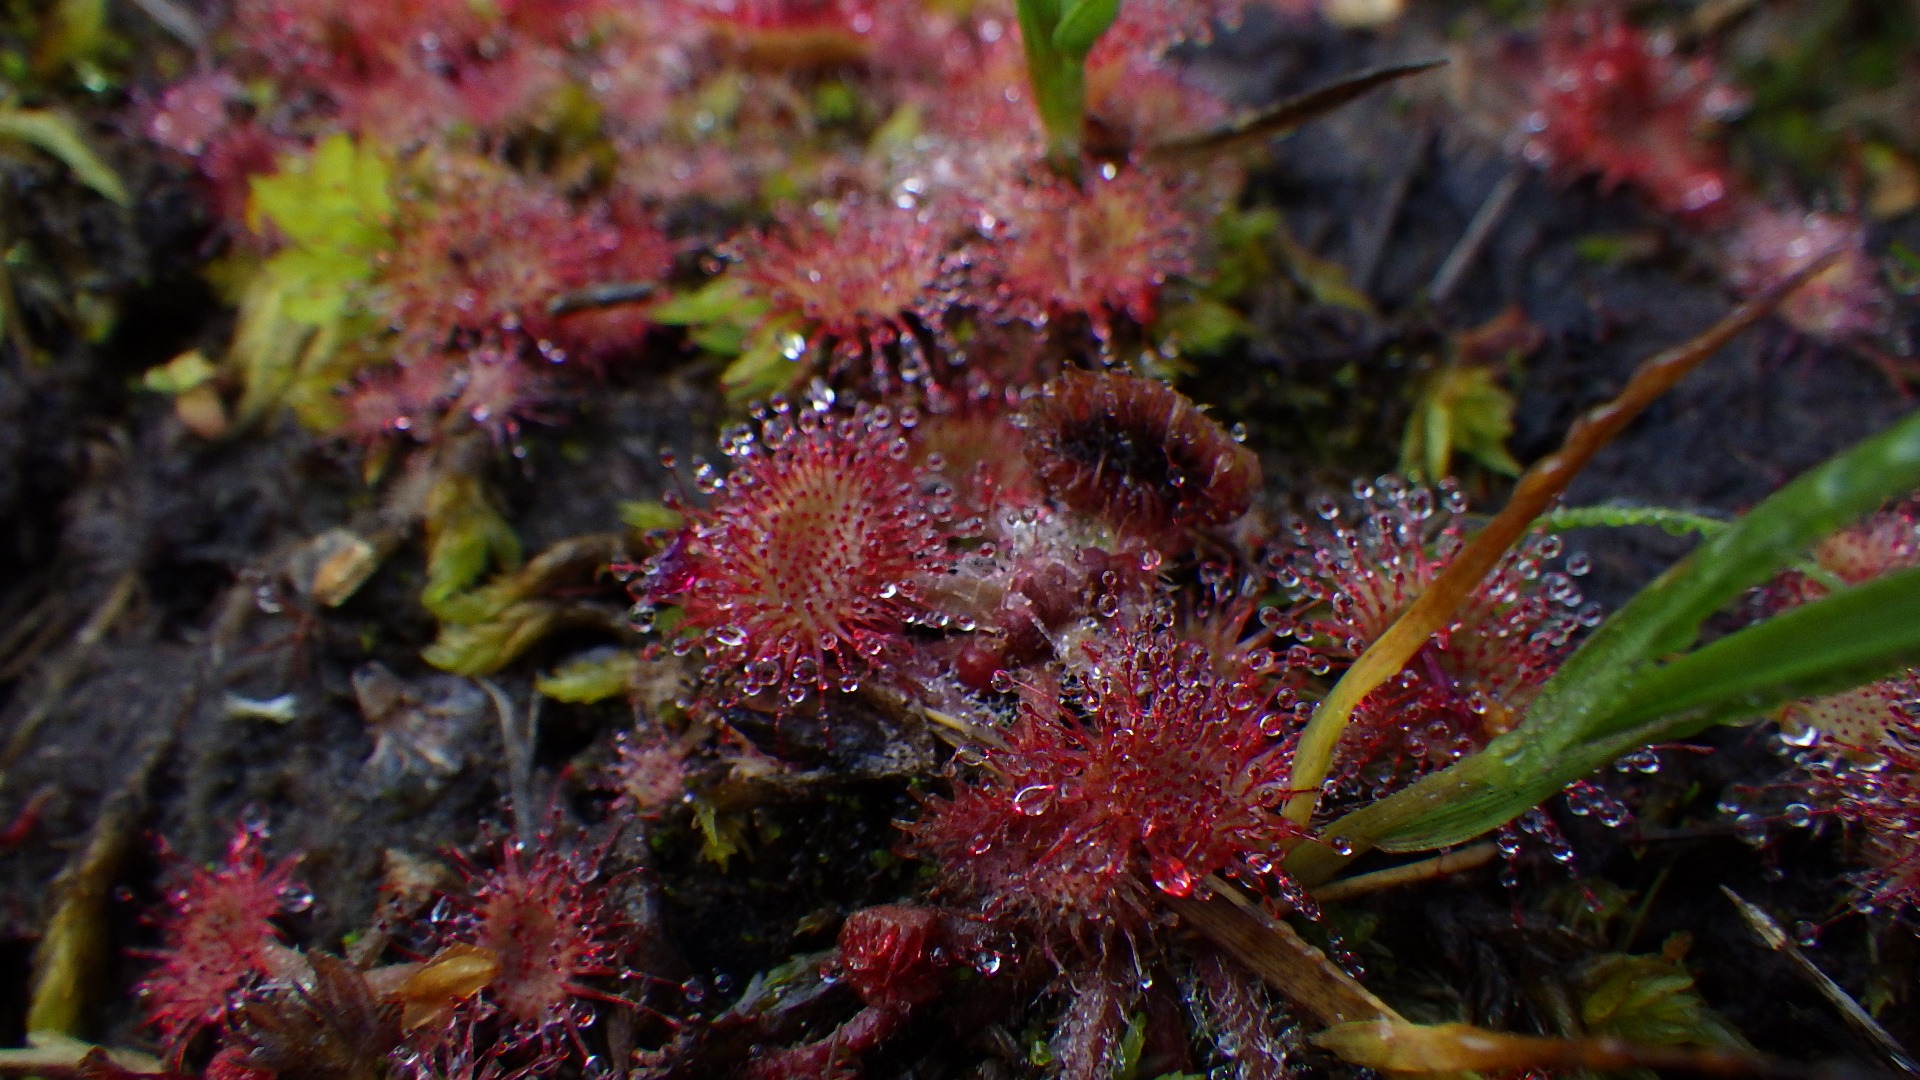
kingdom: Plantae
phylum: Tracheophyta
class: Magnoliopsida
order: Caryophyllales
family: Droseraceae
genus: Drosera
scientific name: Drosera rotundifolia
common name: Rundbladet soldug
